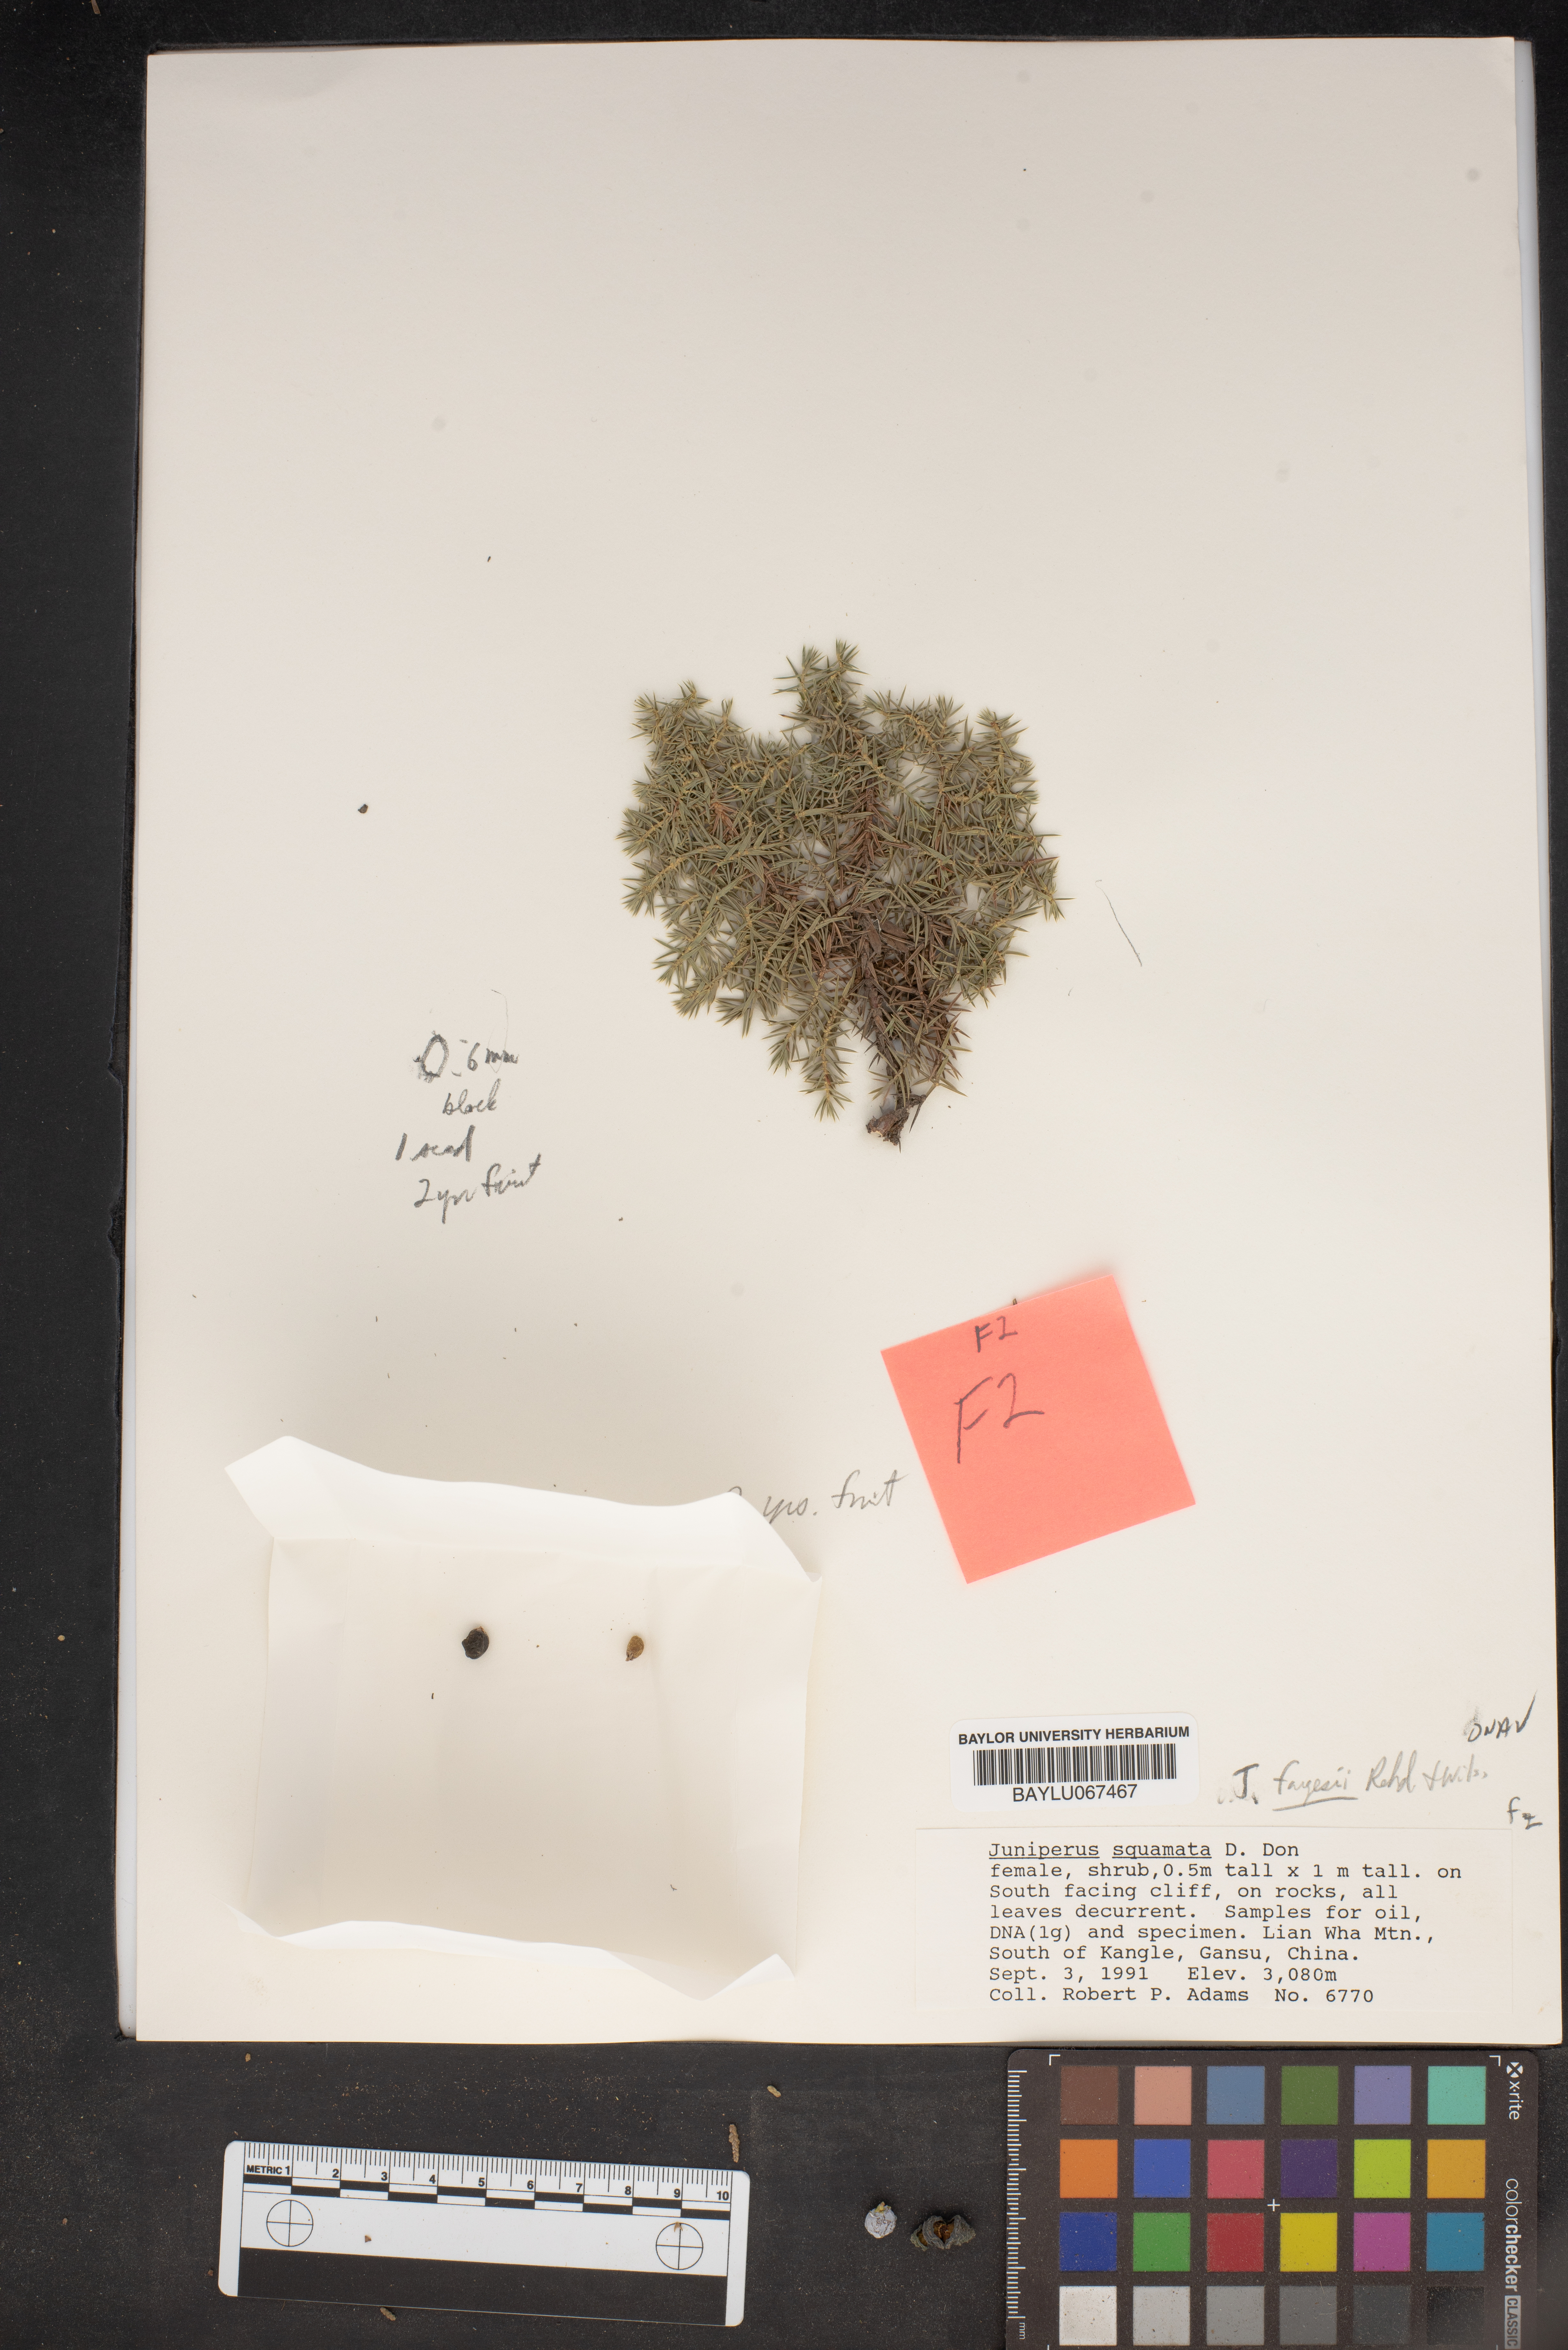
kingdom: Plantae
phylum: Tracheophyta
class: Pinopsida
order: Pinales
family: Cupressaceae
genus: Juniperus
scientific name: Juniperus squamata
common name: Flaky juniper
